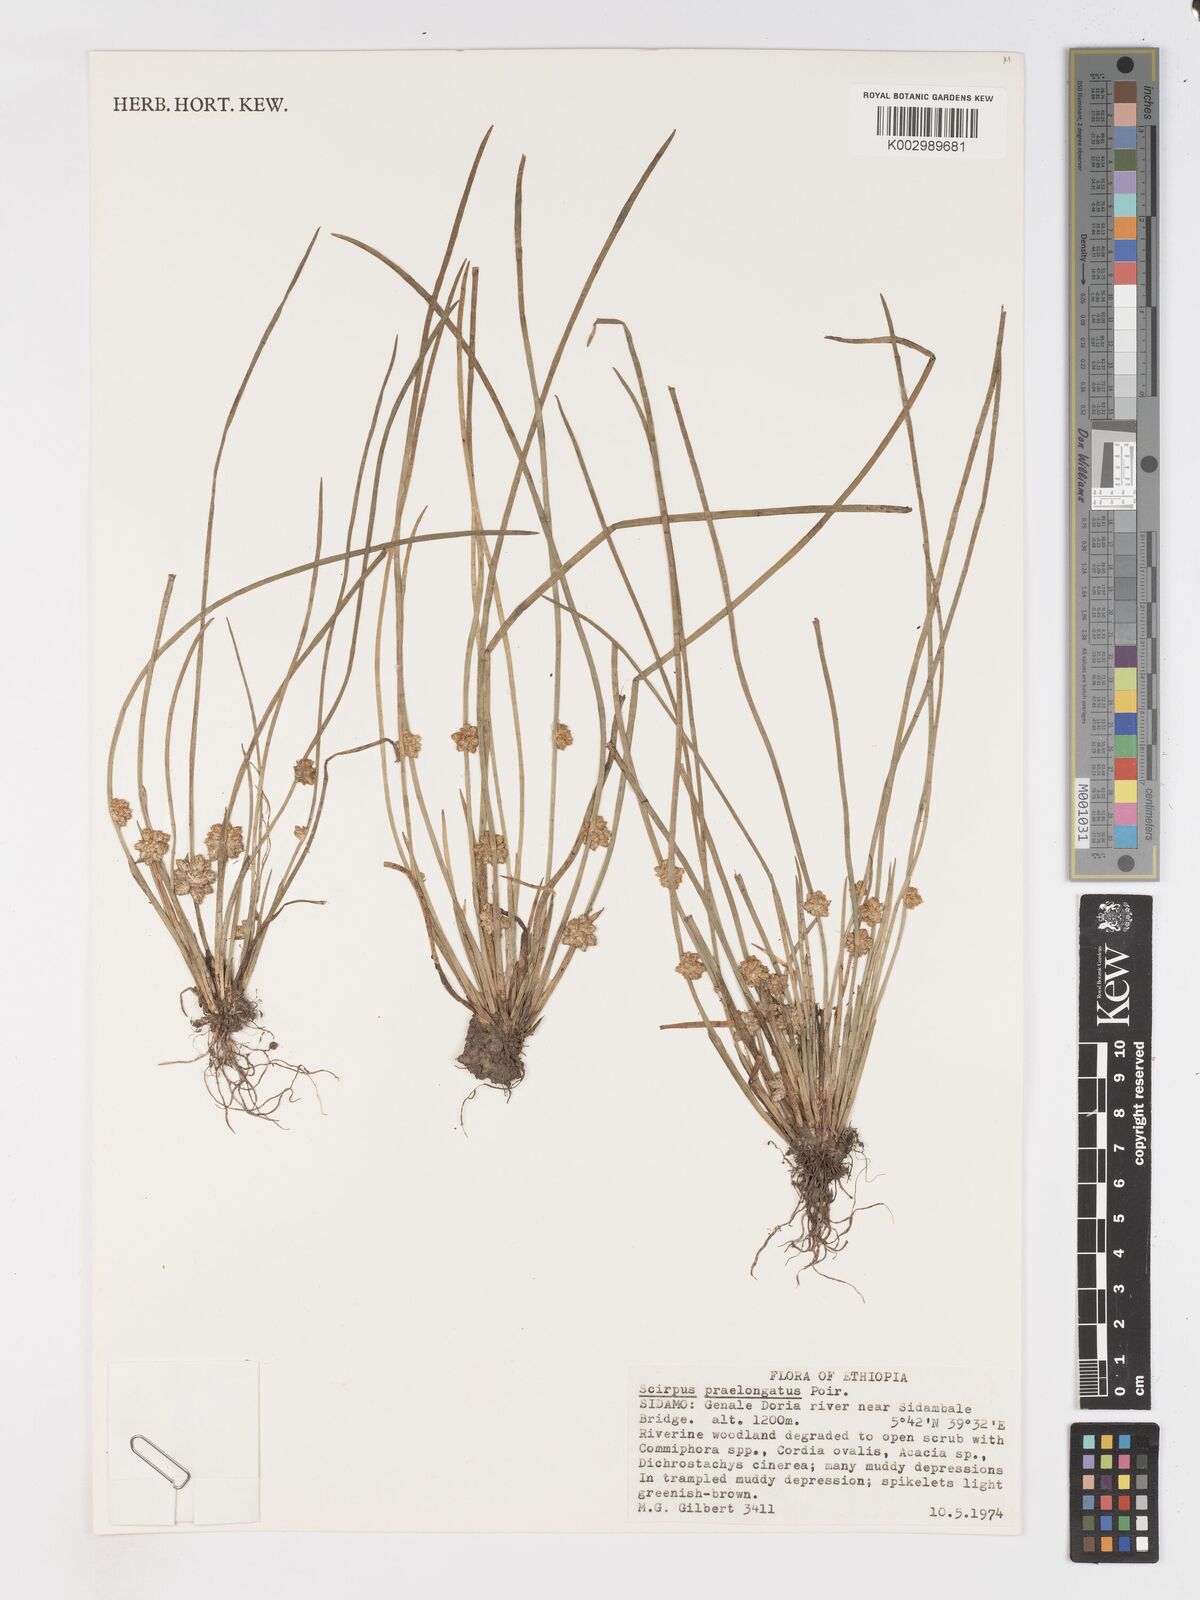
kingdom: Plantae
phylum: Tracheophyta
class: Liliopsida
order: Poales
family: Cyperaceae
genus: Schoenoplectiella
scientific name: Schoenoplectiella senegalensis
